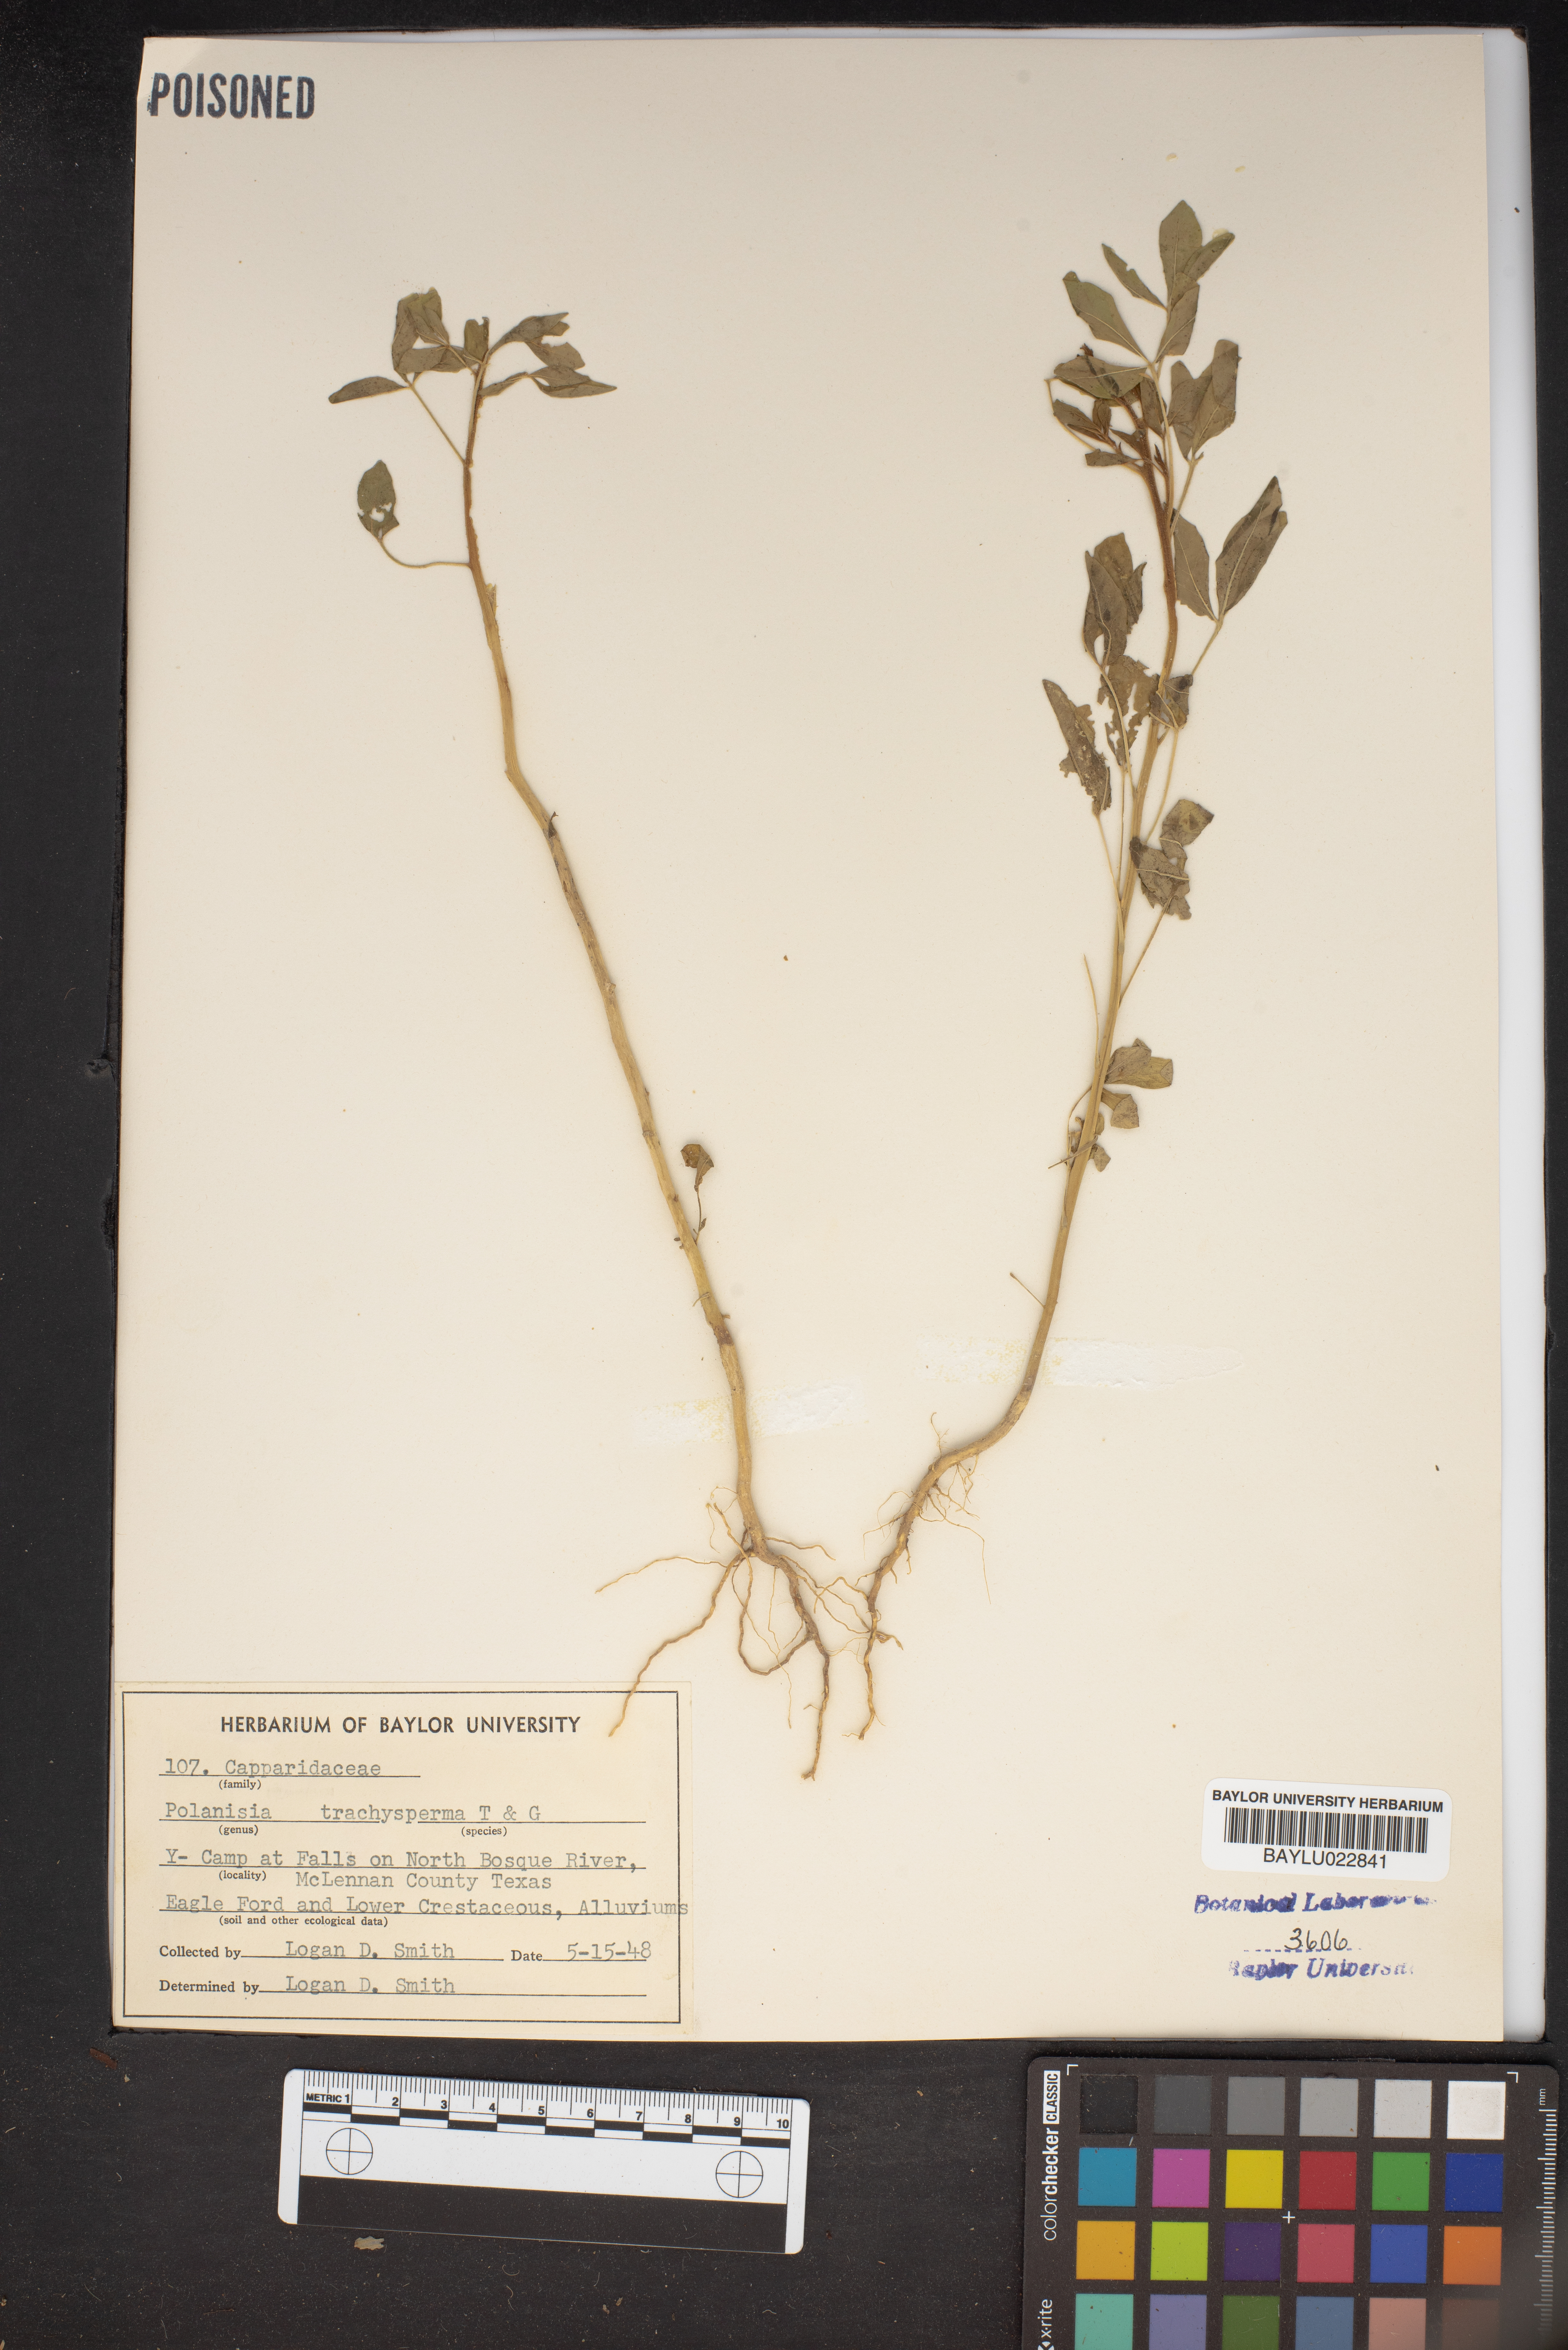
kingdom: Plantae
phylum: Tracheophyta
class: Magnoliopsida
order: Brassicales
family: Cleomaceae
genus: Polanisia
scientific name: Polanisia trachysperma
